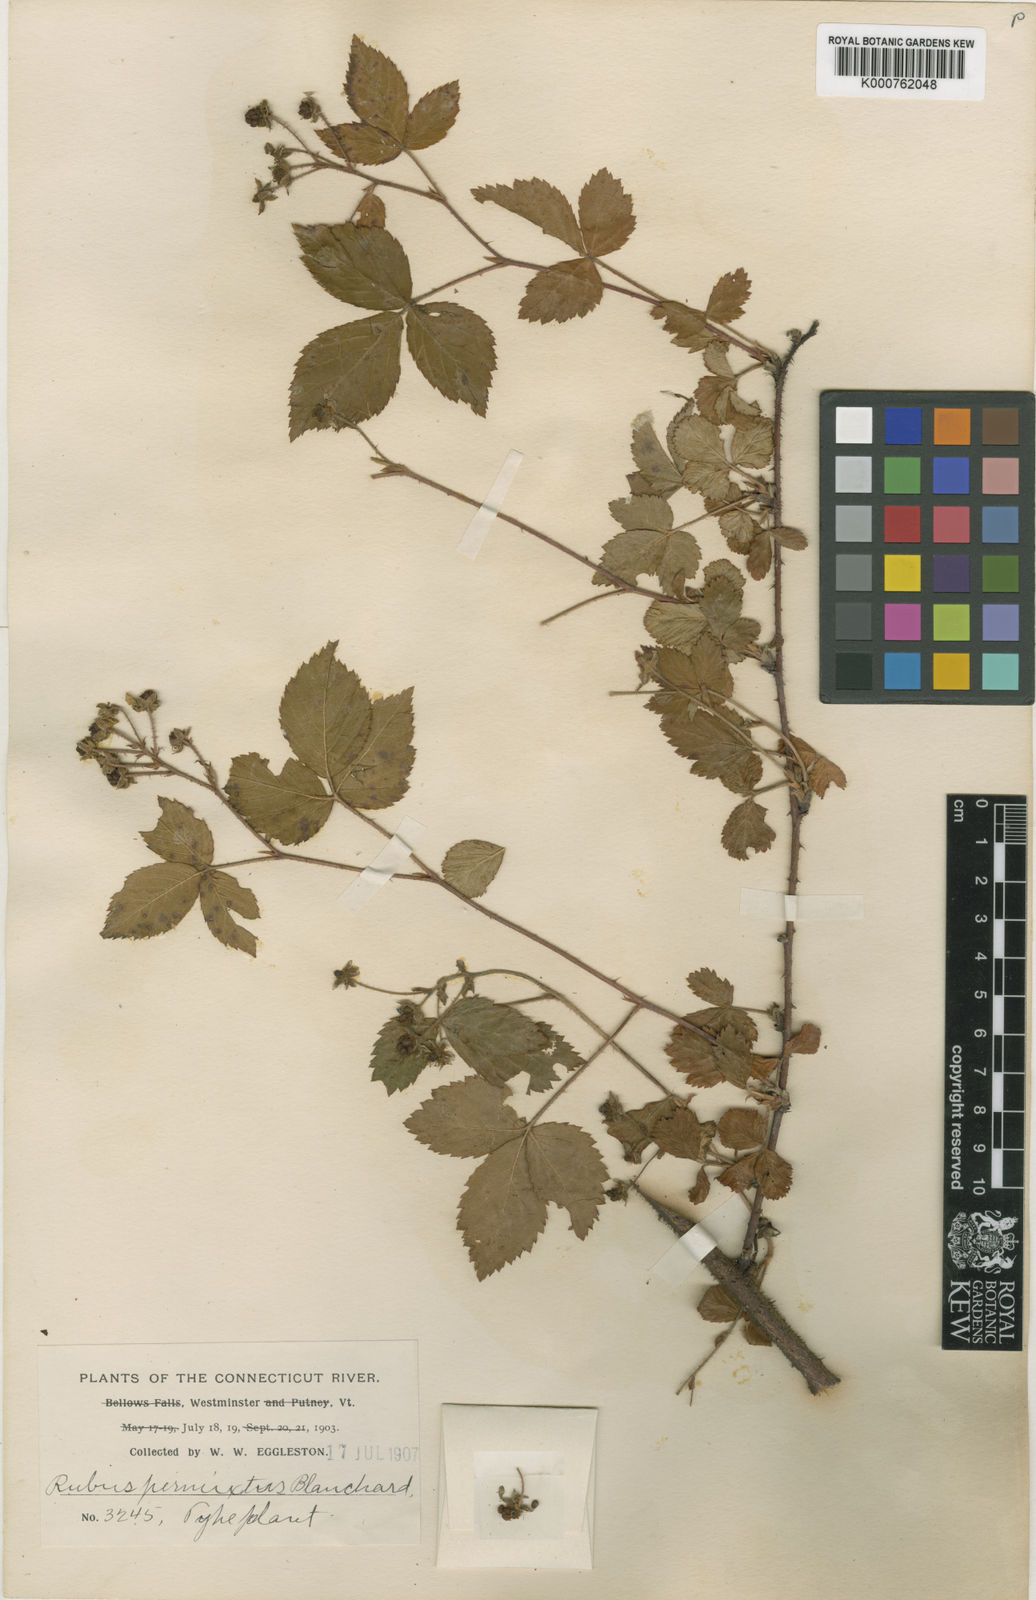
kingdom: Plantae
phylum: Tracheophyta
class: Magnoliopsida
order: Rosales
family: Rosaceae
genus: Rubus
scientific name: Rubus permixtus
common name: Thicket dewberry
